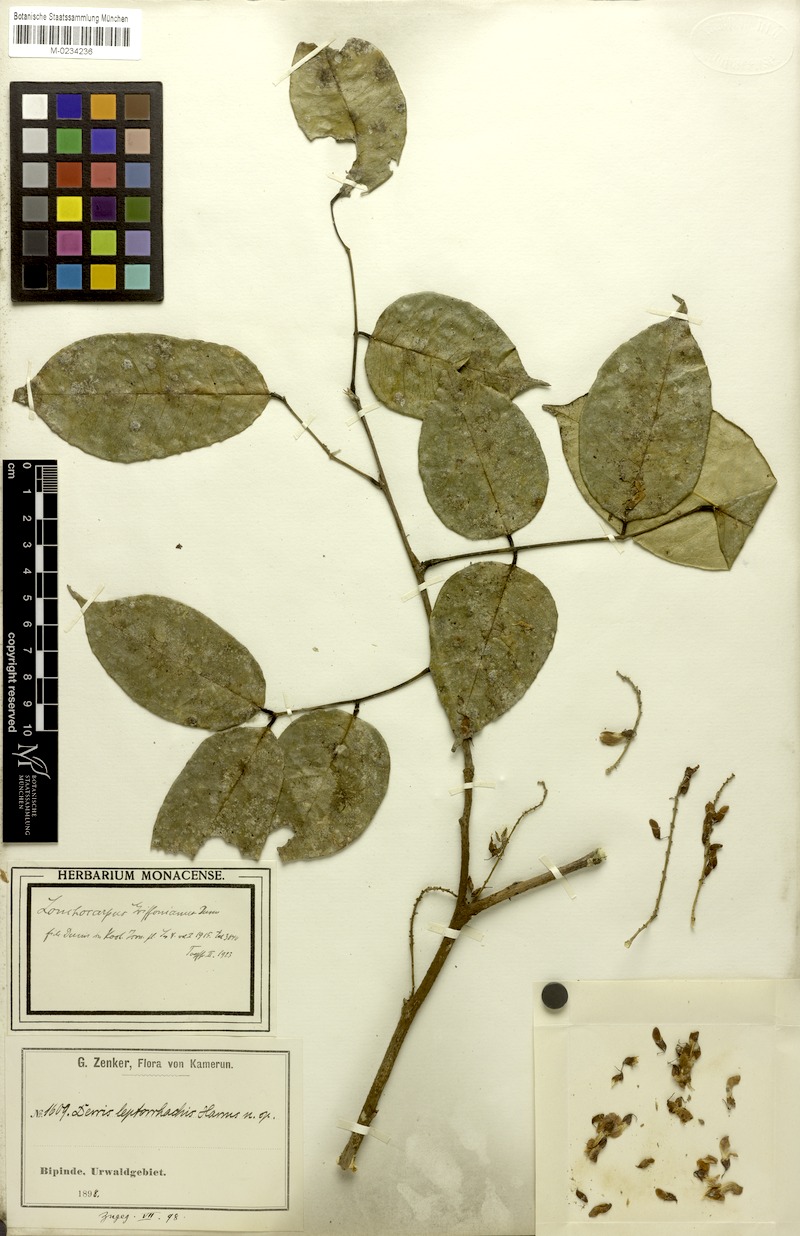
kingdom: Plantae
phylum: Tracheophyta
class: Magnoliopsida
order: Fabales
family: Fabaceae
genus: Millettia
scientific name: Millettia griffoniana
